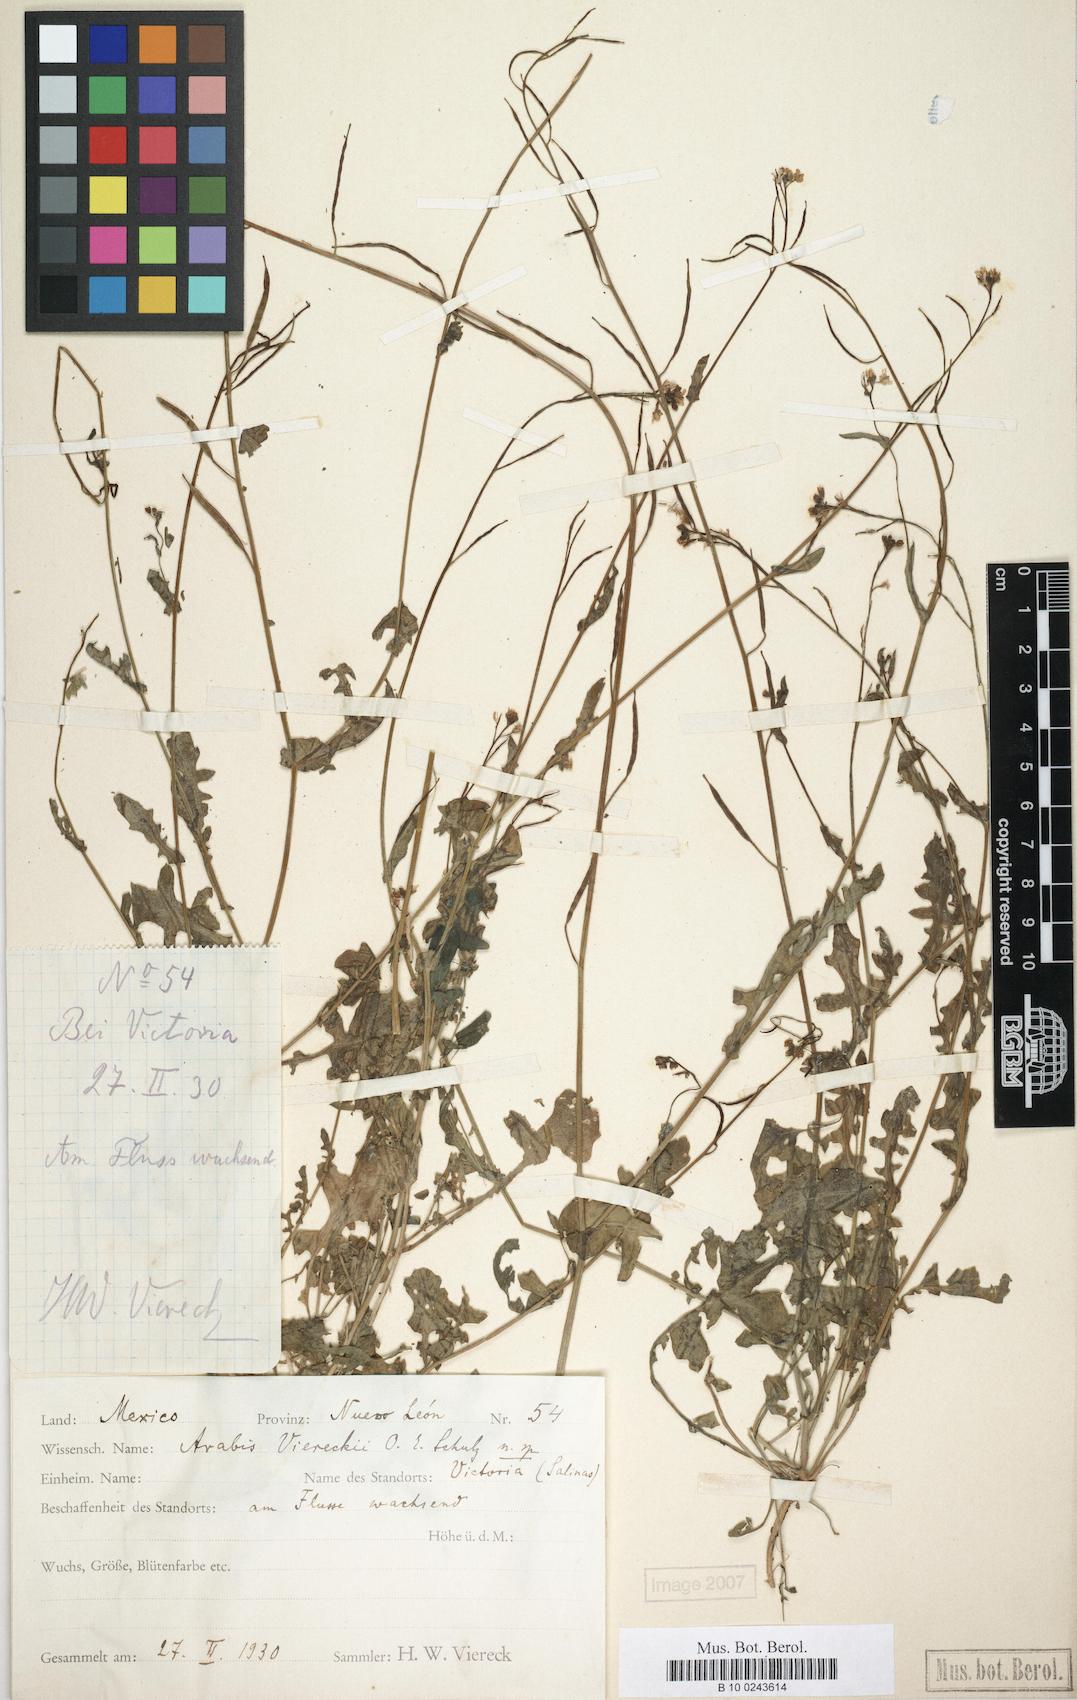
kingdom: Plantae
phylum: Tracheophyta
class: Magnoliopsida
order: Brassicales
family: Brassicaceae
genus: Phravenia
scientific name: Phravenia viereckii
